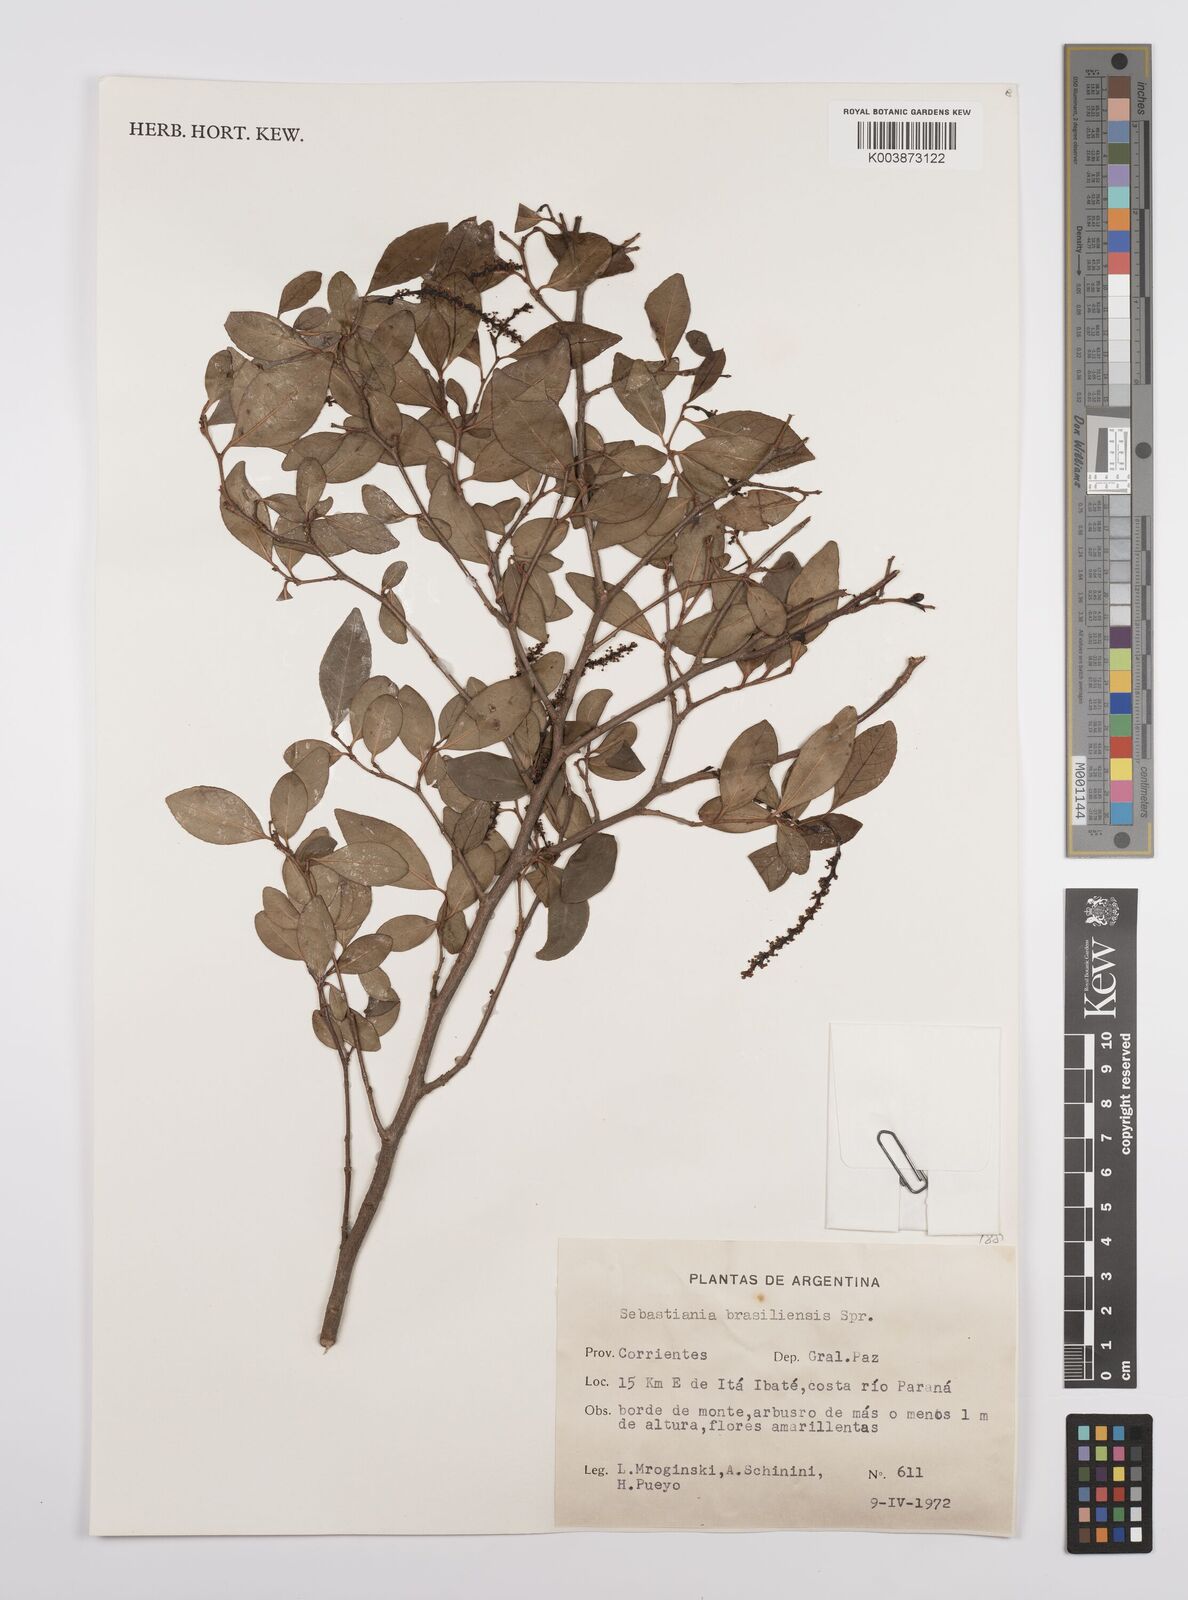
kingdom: Plantae
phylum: Tracheophyta
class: Magnoliopsida
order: Malpighiales
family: Euphorbiaceae
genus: Sebastiania
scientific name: Sebastiania brasiliensis
